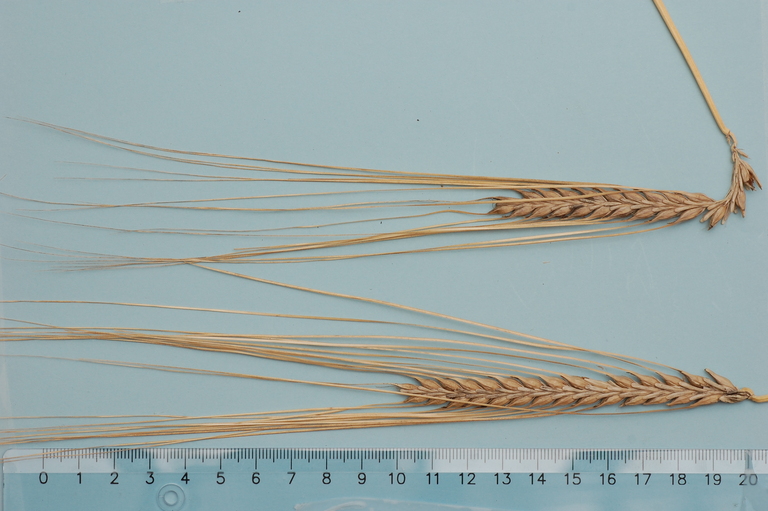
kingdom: Plantae
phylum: Tracheophyta
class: Liliopsida
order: Poales
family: Poaceae
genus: Hordeum
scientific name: Hordeum vulgare
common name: Common barley
